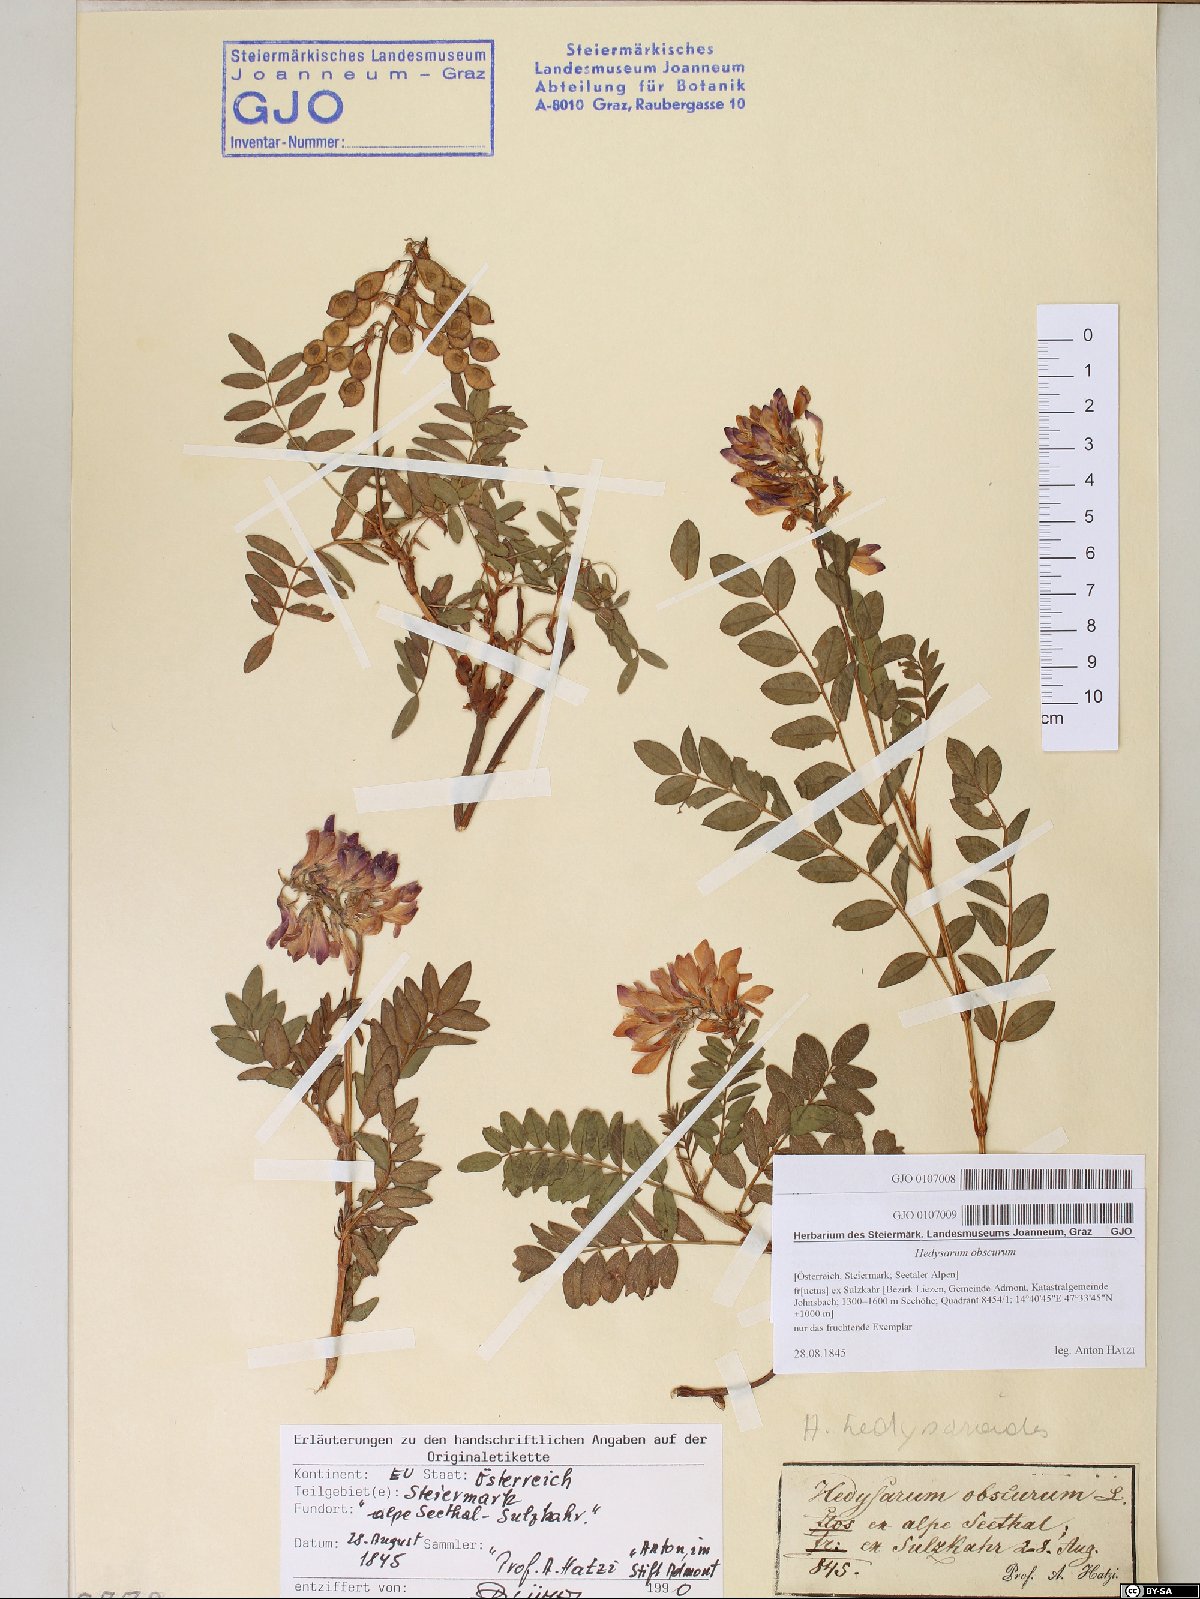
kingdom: Plantae
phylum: Tracheophyta
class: Magnoliopsida
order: Fabales
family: Fabaceae
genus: Hedysarum
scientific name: Hedysarum hedysaroides
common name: Alpine french-honeysuckle
